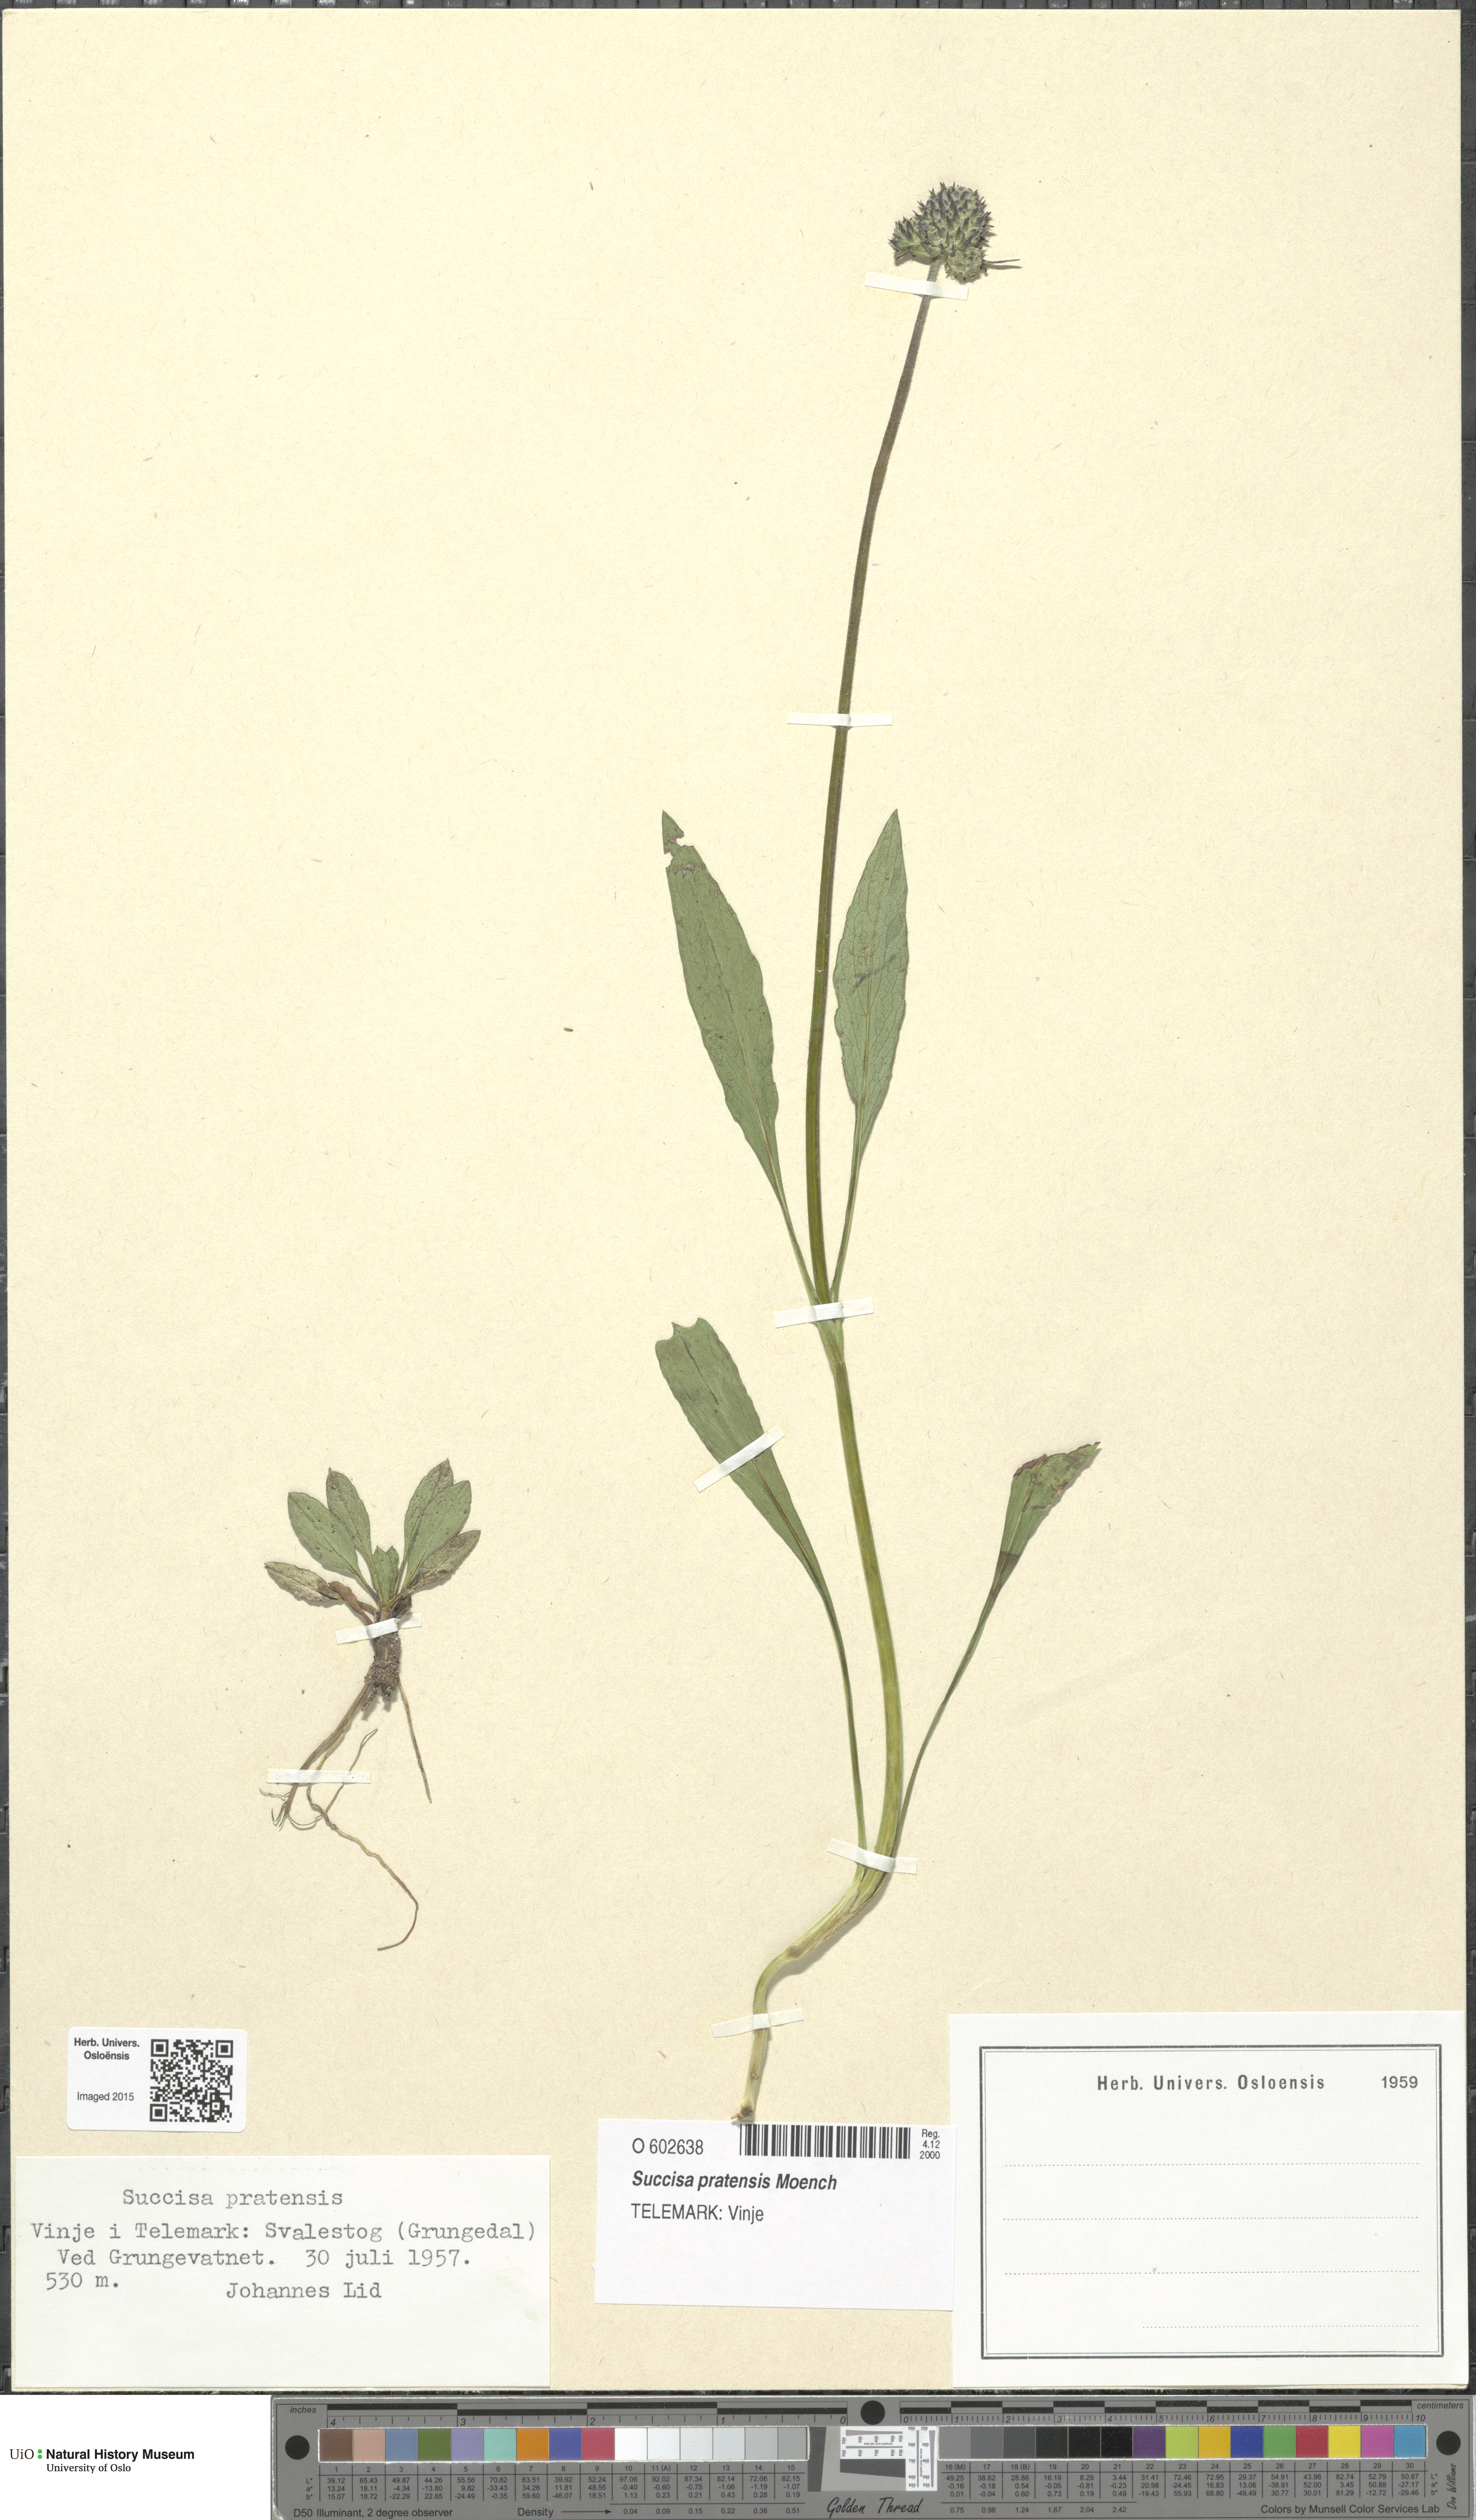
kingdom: Plantae
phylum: Tracheophyta
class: Magnoliopsida
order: Dipsacales
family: Caprifoliaceae
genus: Succisa
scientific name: Succisa pratensis
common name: Devil's-bit
